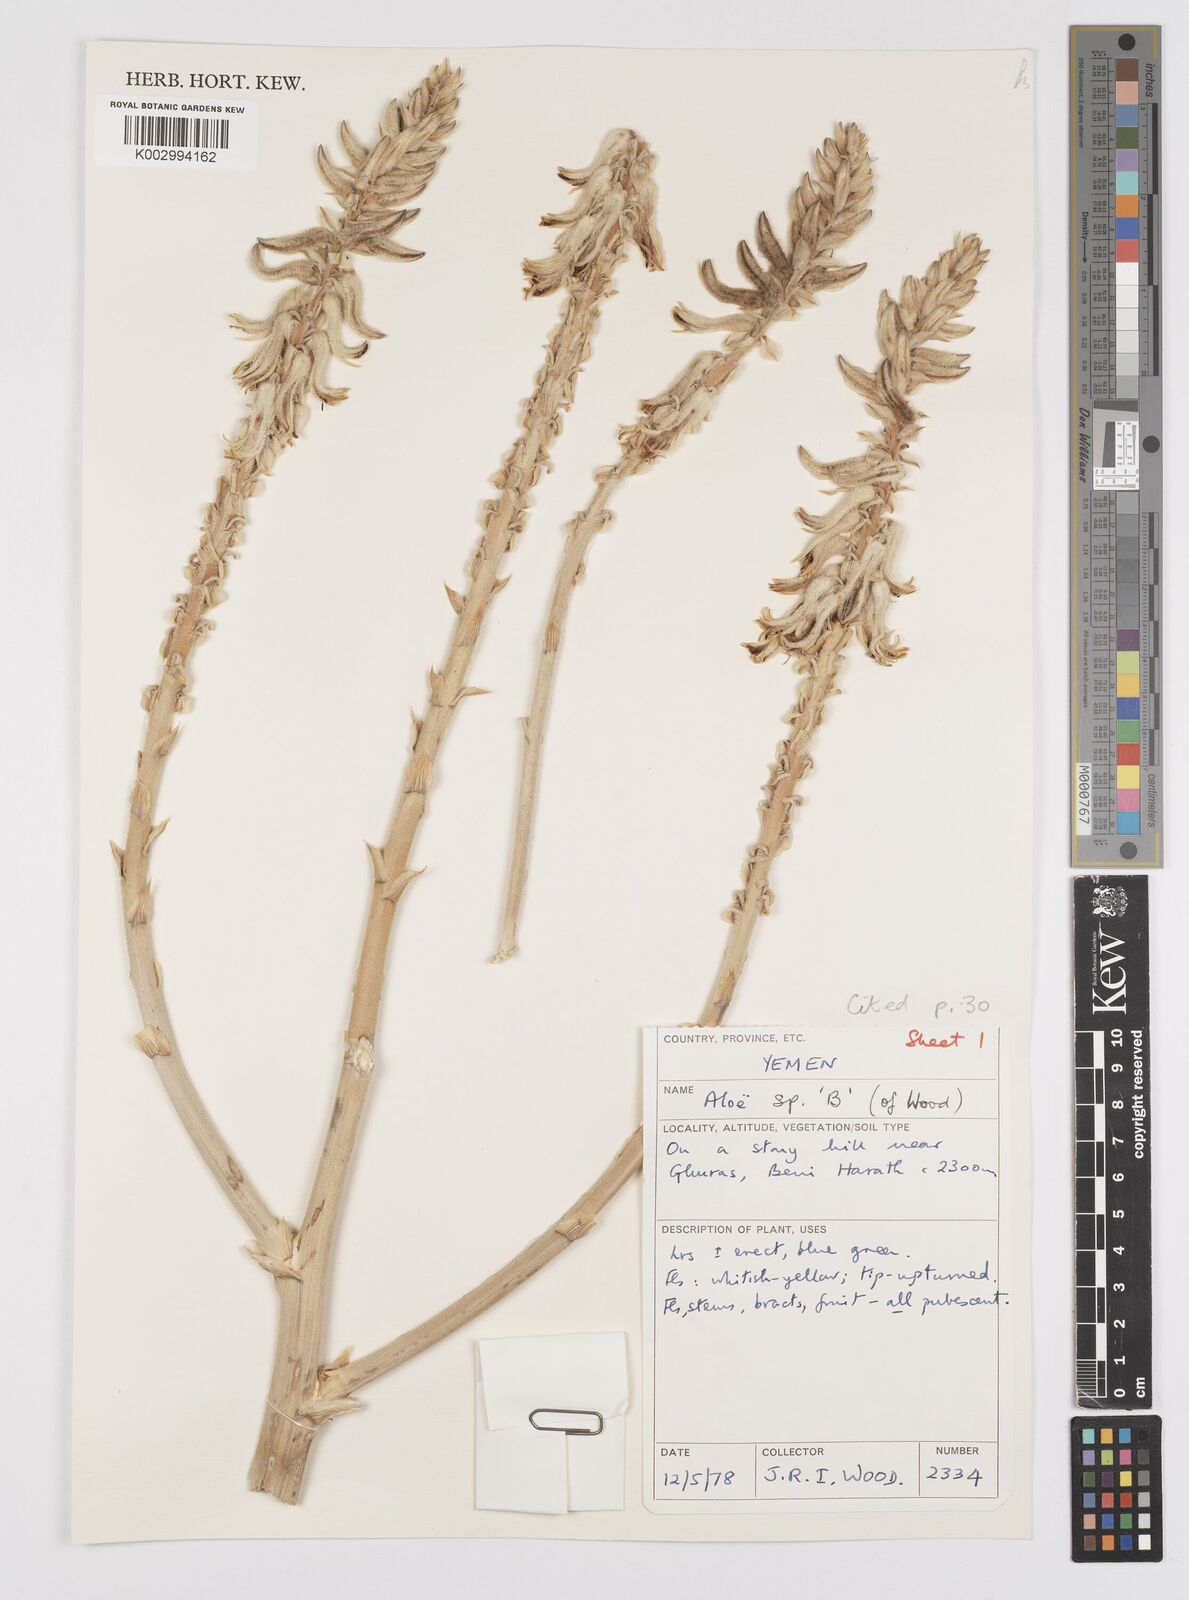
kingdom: Plantae
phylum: Tracheophyta
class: Liliopsida
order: Asparagales
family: Asphodelaceae
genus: Aloe
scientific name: Aloe
